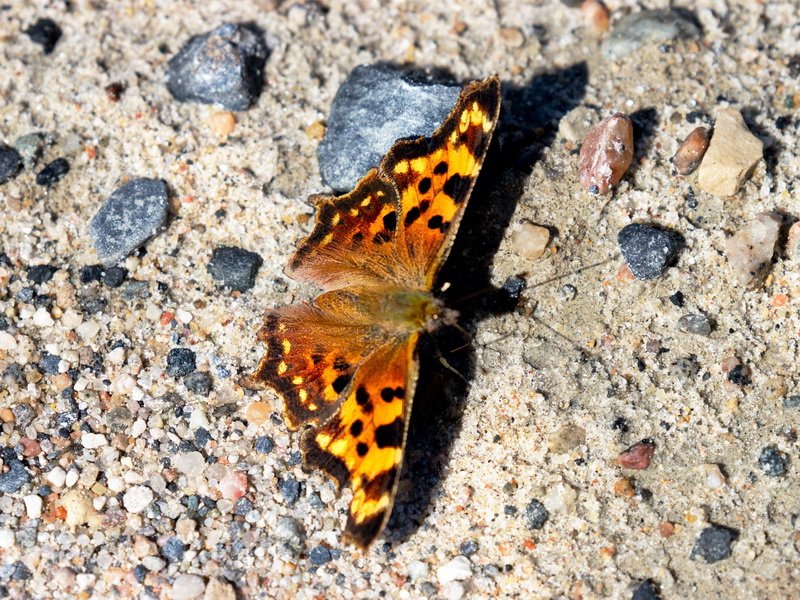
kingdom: Animalia
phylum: Arthropoda
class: Insecta
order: Lepidoptera
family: Nymphalidae
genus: Polygonia
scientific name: Polygonia faunus
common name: Green Comma
